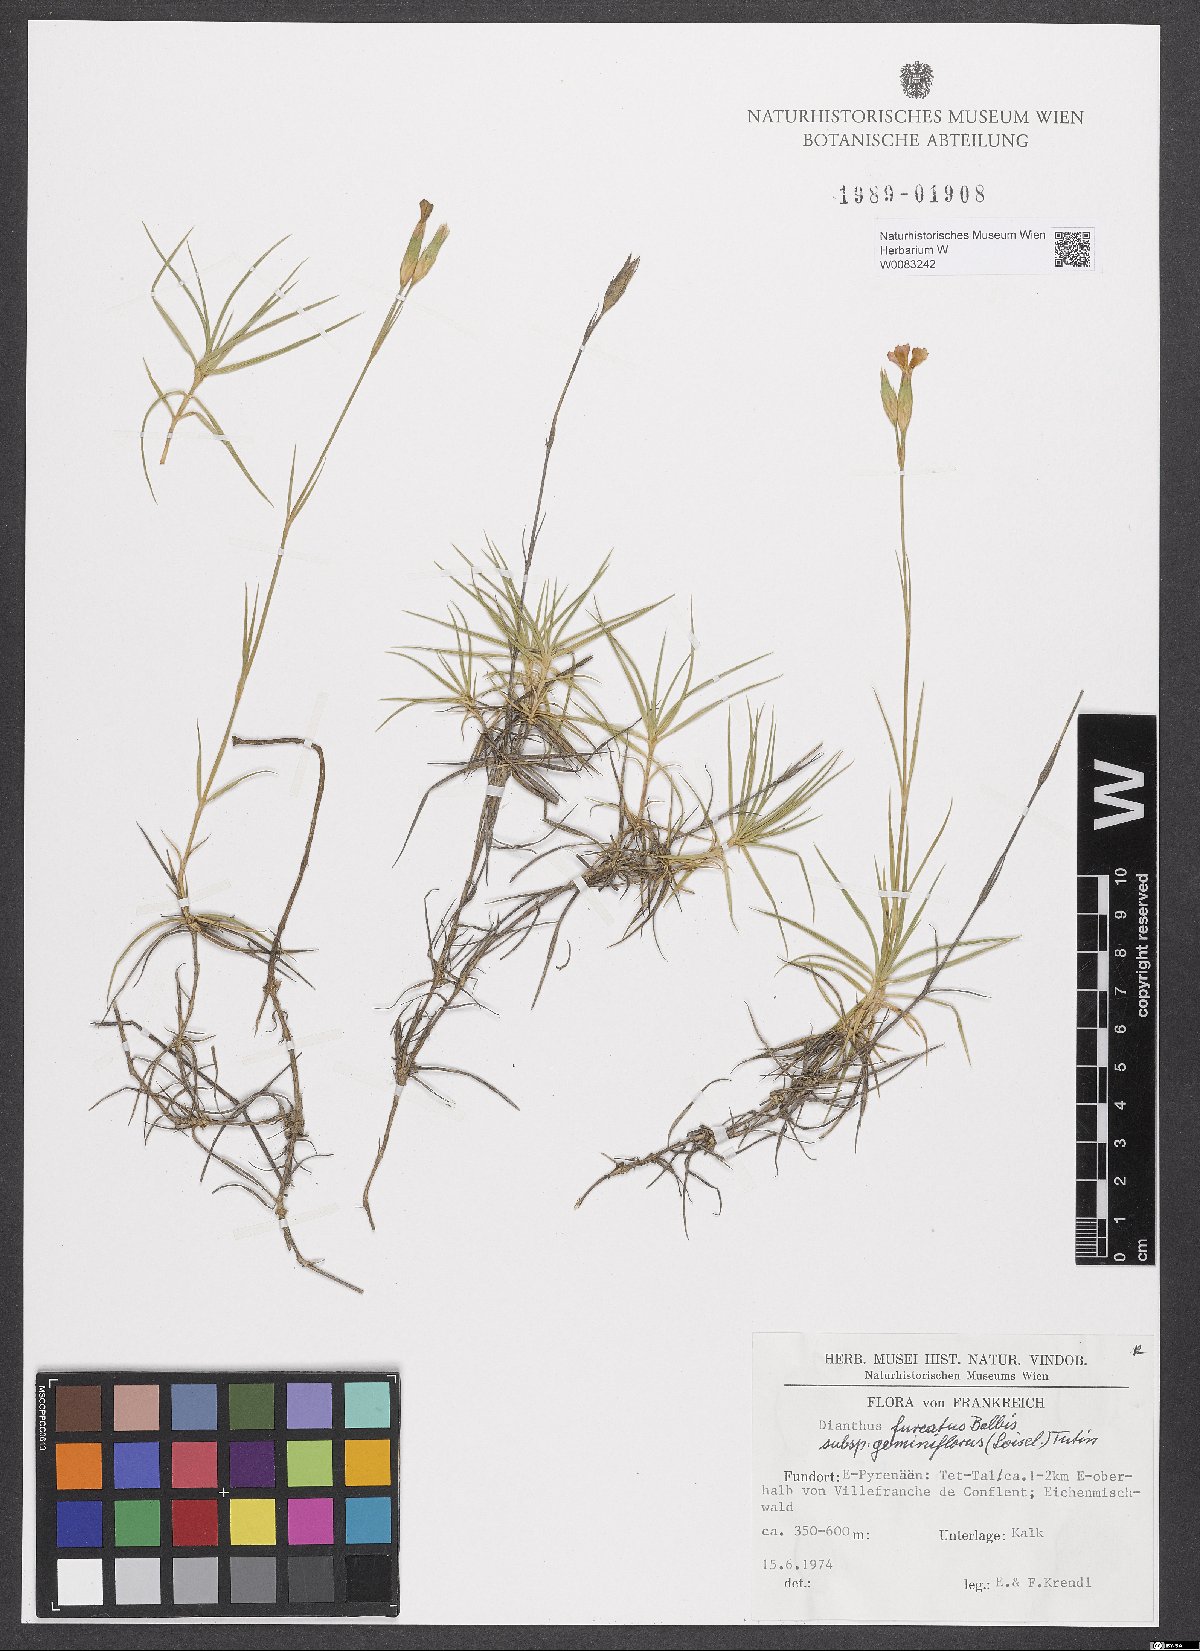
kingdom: Plantae
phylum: Tracheophyta
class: Magnoliopsida
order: Caryophyllales
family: Caryophyllaceae
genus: Dianthus
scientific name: Dianthus benearnensis
